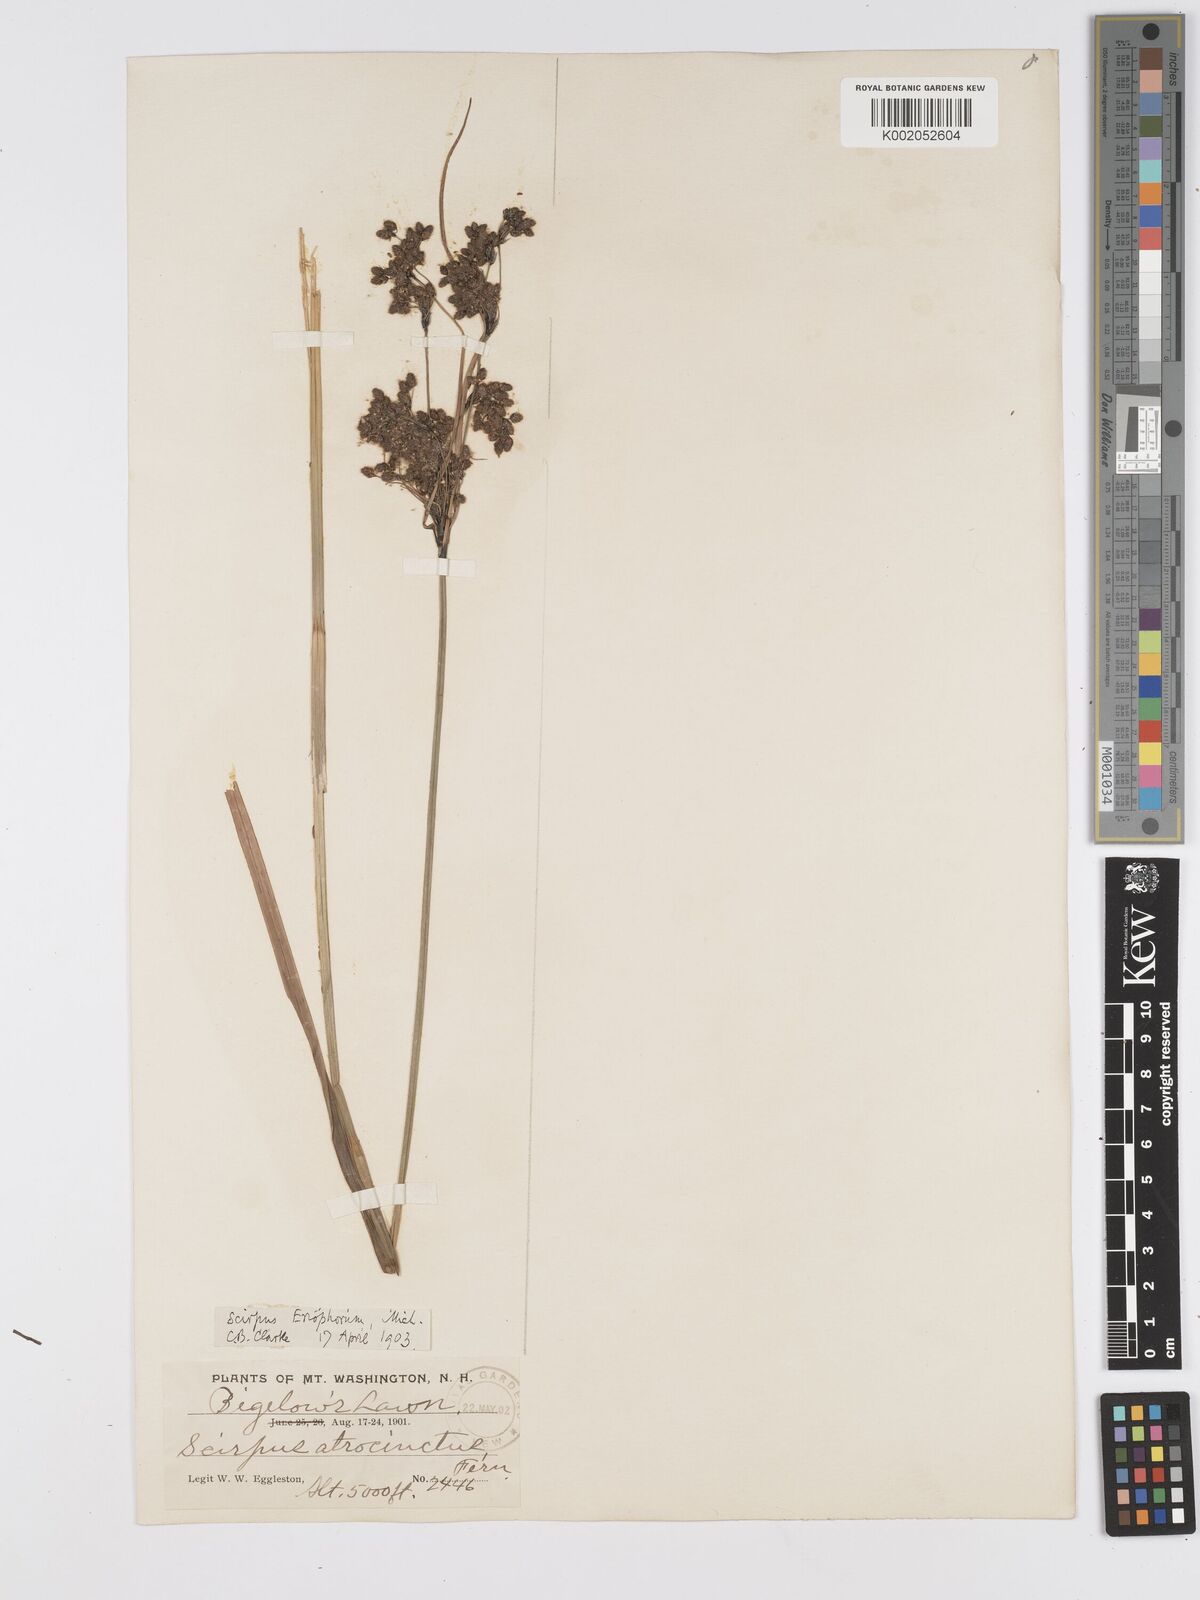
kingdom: Plantae
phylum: Tracheophyta
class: Liliopsida
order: Poales
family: Cyperaceae
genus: Scirpus
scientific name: Scirpus atrocinctus
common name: Black-girdled bulrush
